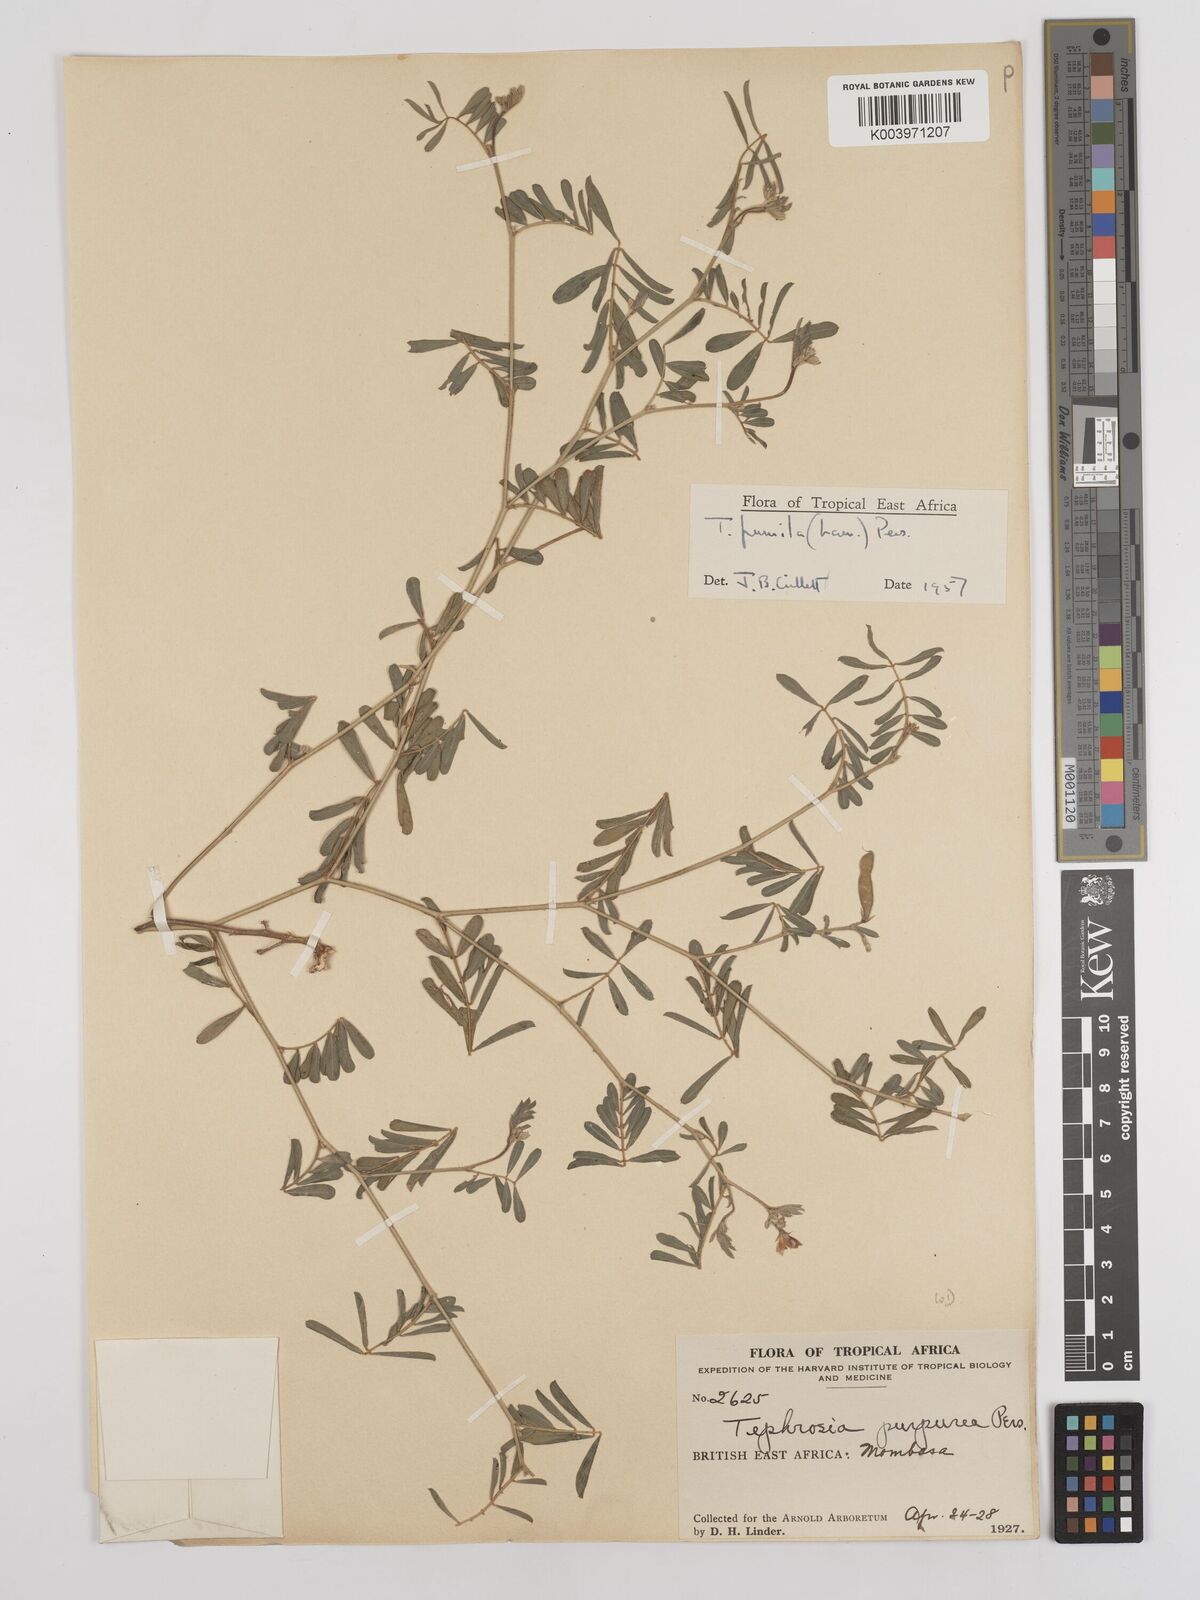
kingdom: Plantae
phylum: Tracheophyta
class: Magnoliopsida
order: Fabales
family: Fabaceae
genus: Tephrosia
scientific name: Tephrosia pumila
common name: Indigo sauvage
